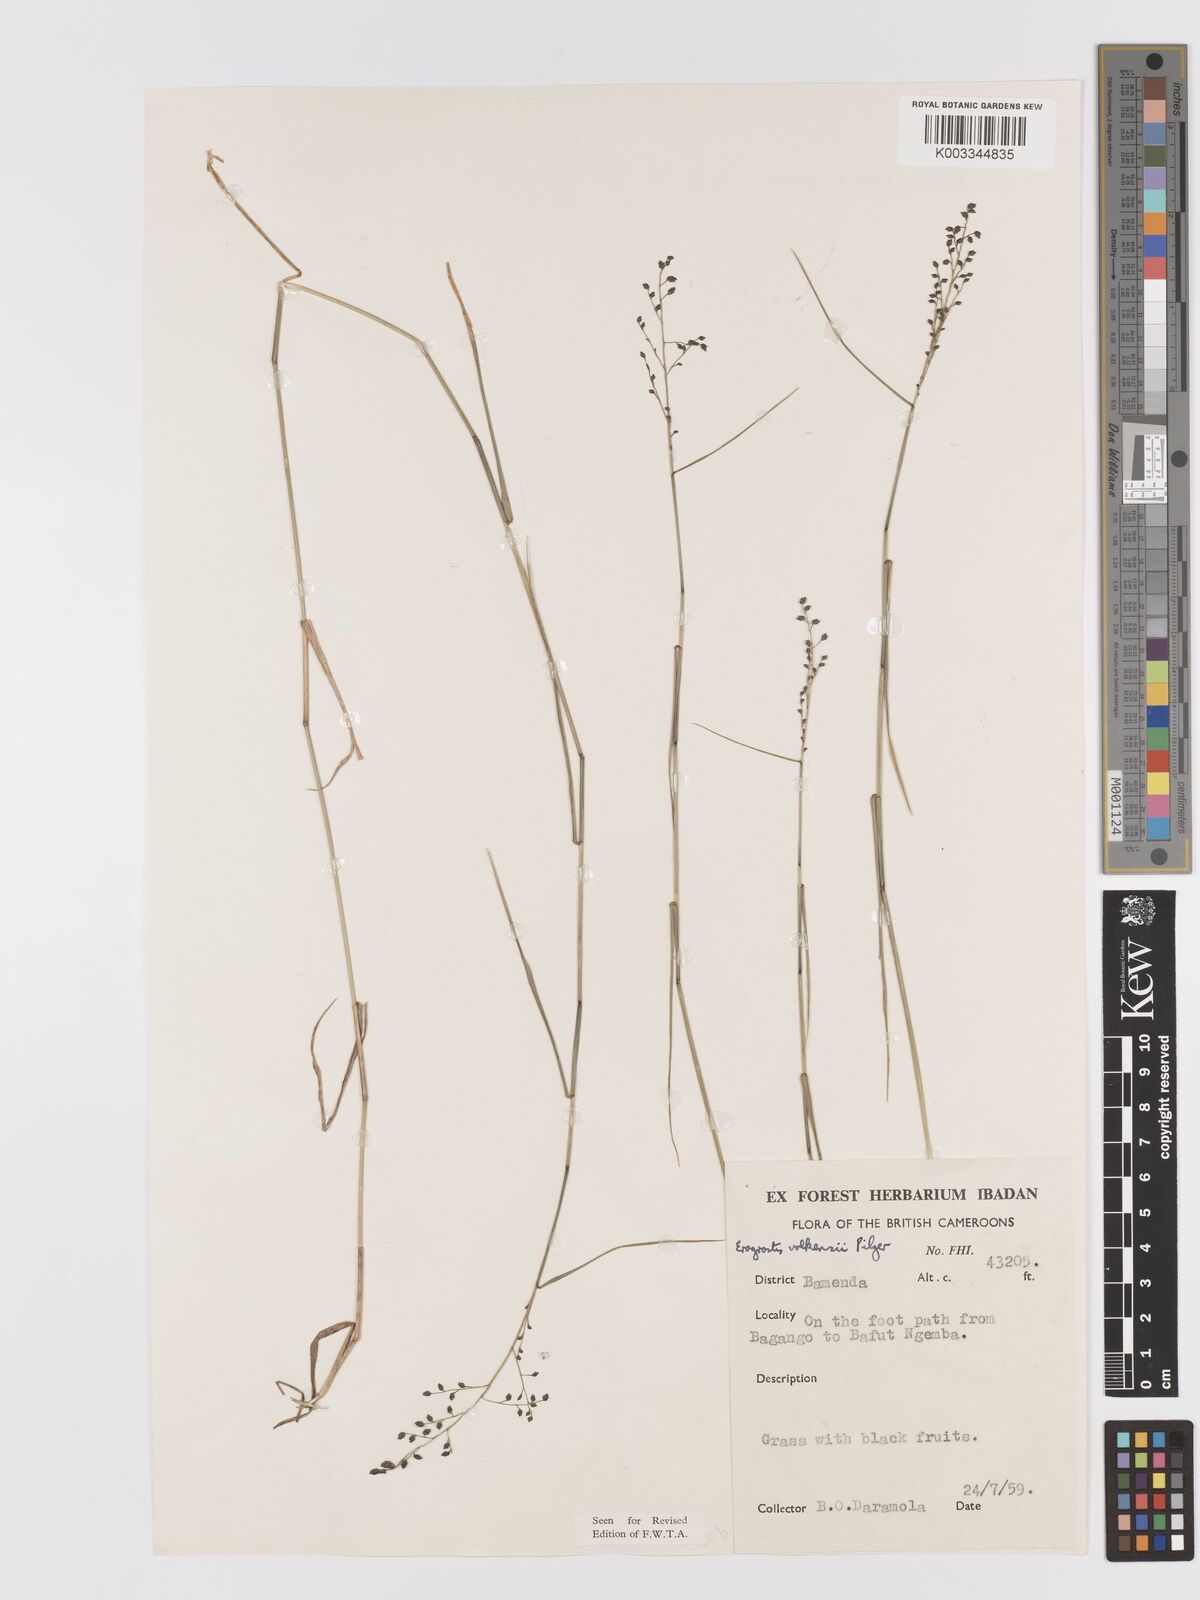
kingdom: Plantae
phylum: Tracheophyta
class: Liliopsida
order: Poales
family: Poaceae
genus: Eragrostis
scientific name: Eragrostis volkensii
